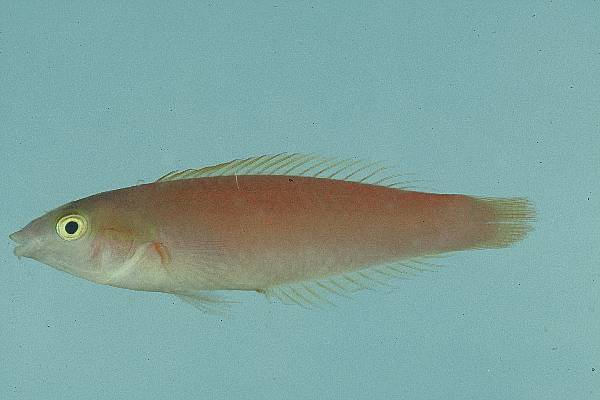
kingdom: Animalia
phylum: Chordata
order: Perciformes
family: Labridae
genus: Pseudojuloides
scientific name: Pseudojuloides cerasinus
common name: Smalltail wrasse
